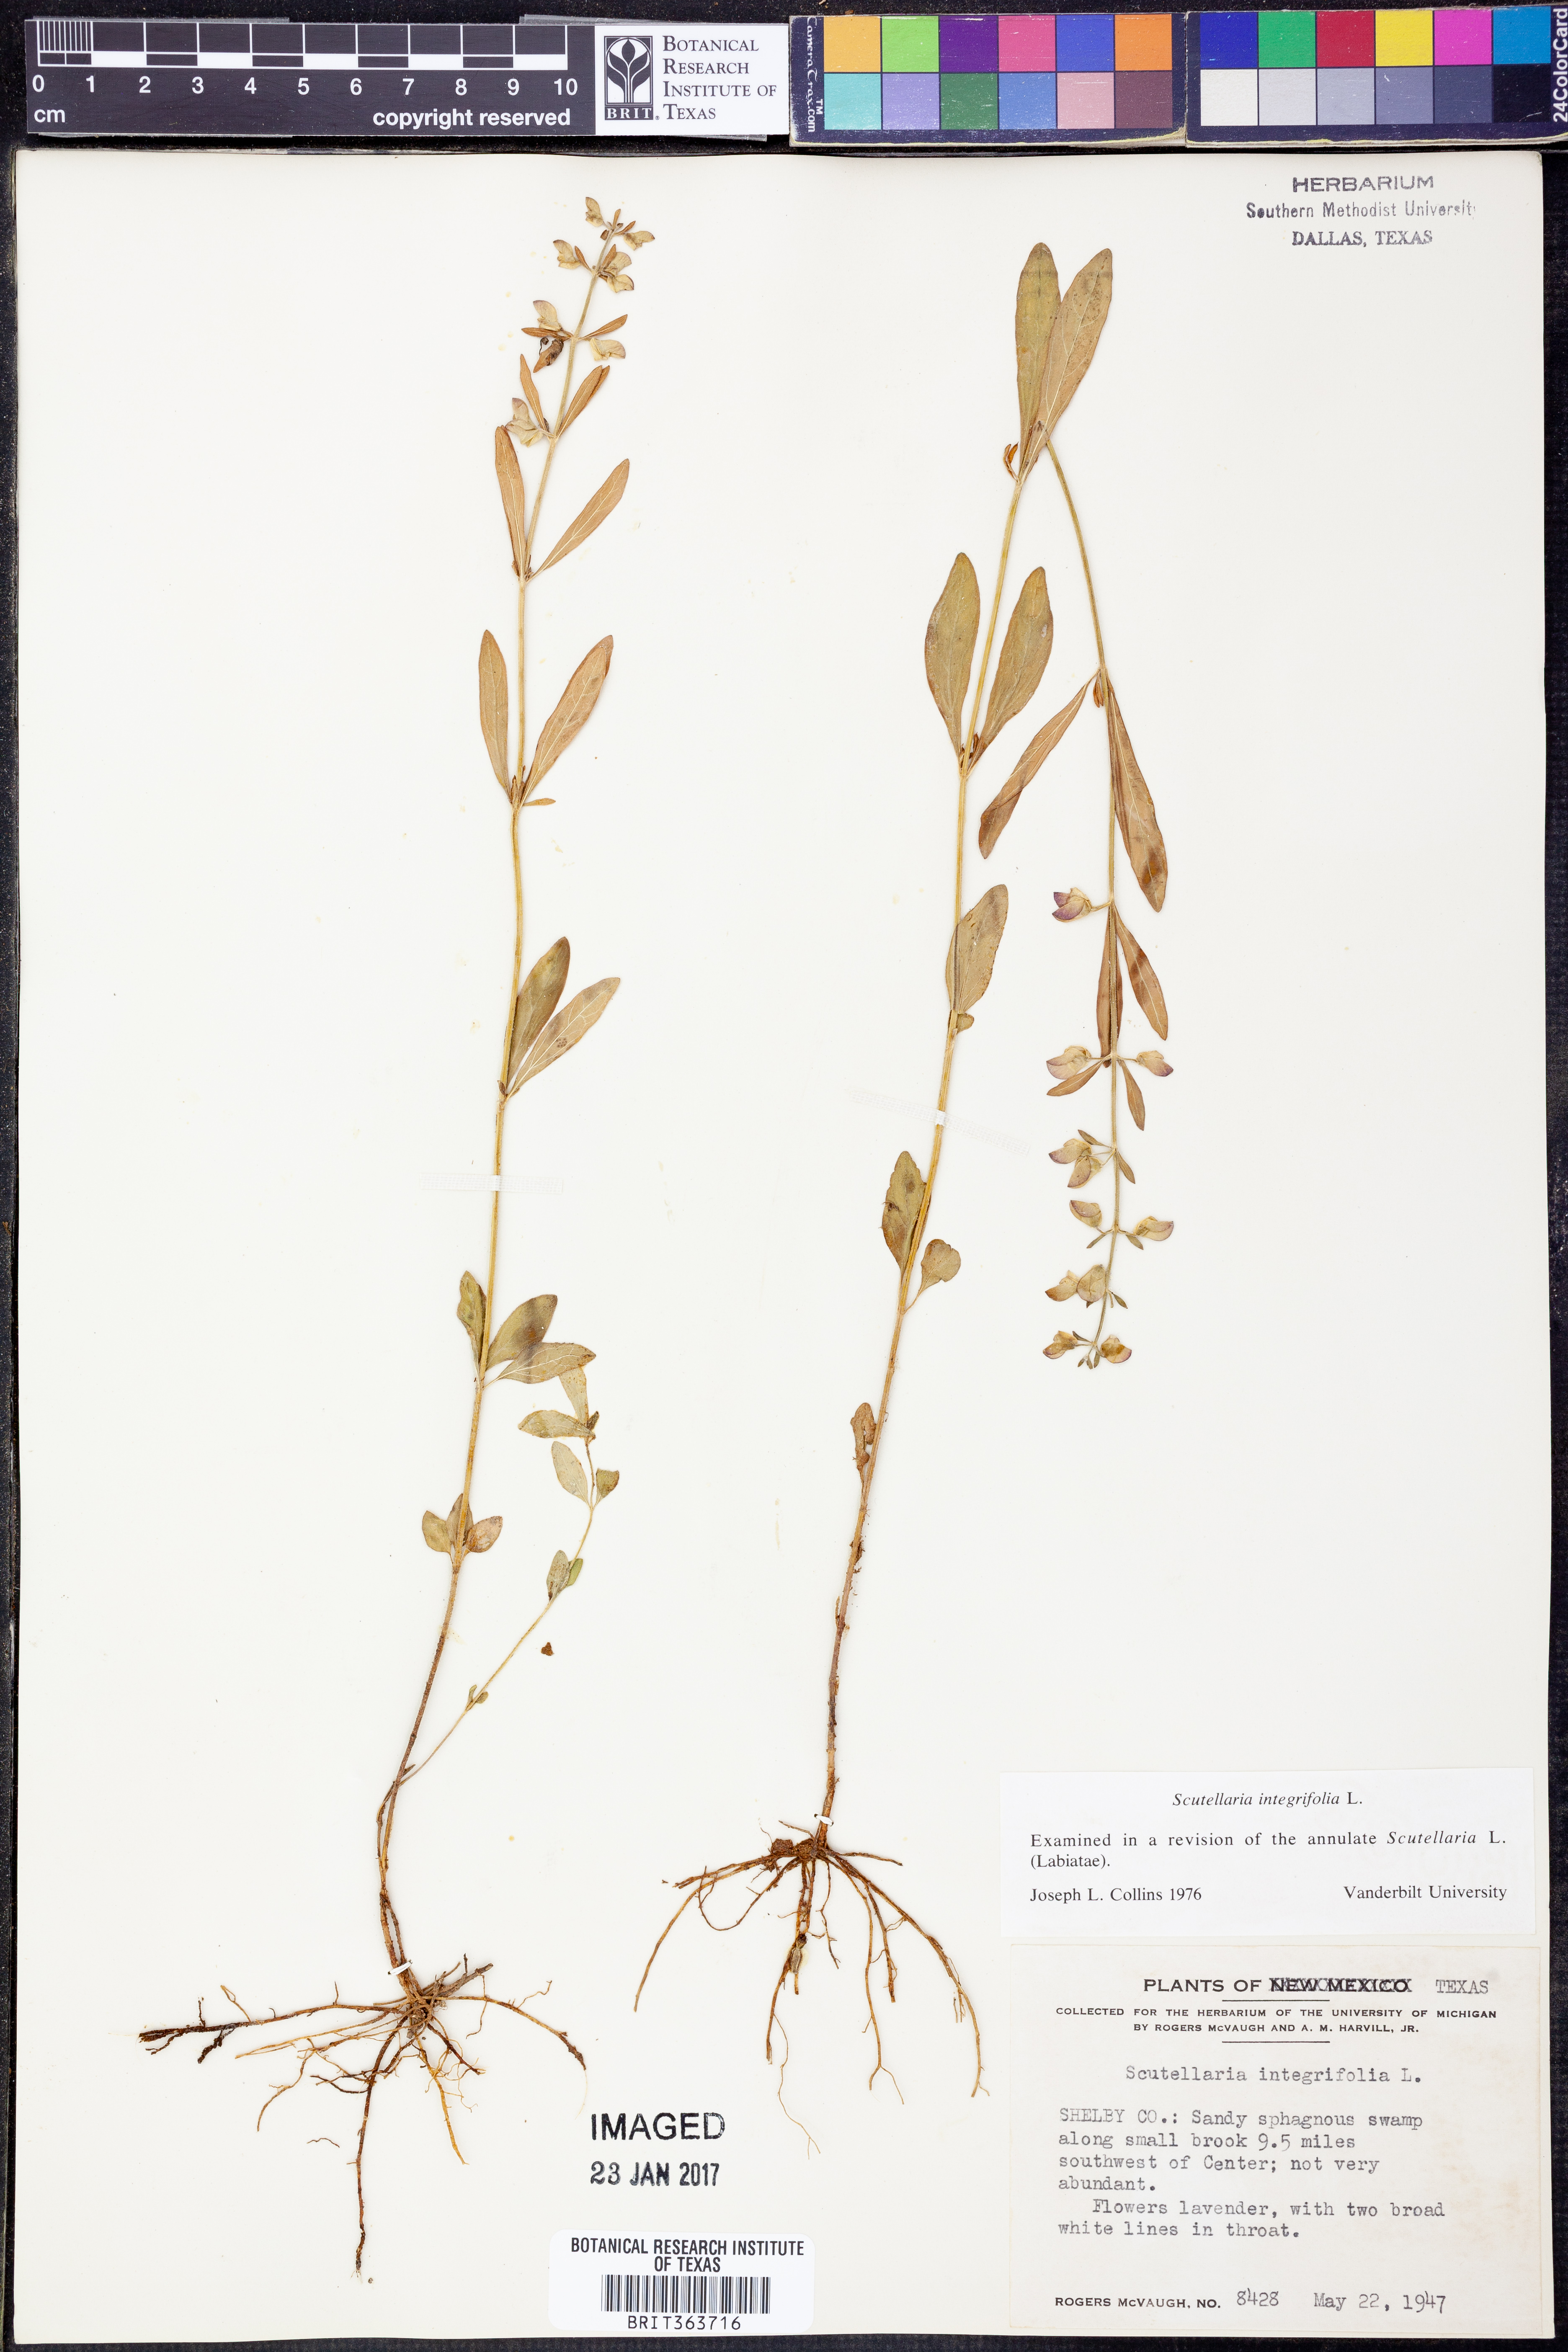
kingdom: Plantae
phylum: Tracheophyta
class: Magnoliopsida
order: Lamiales
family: Lamiaceae
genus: Scutellaria
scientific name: Scutellaria integrifolia
